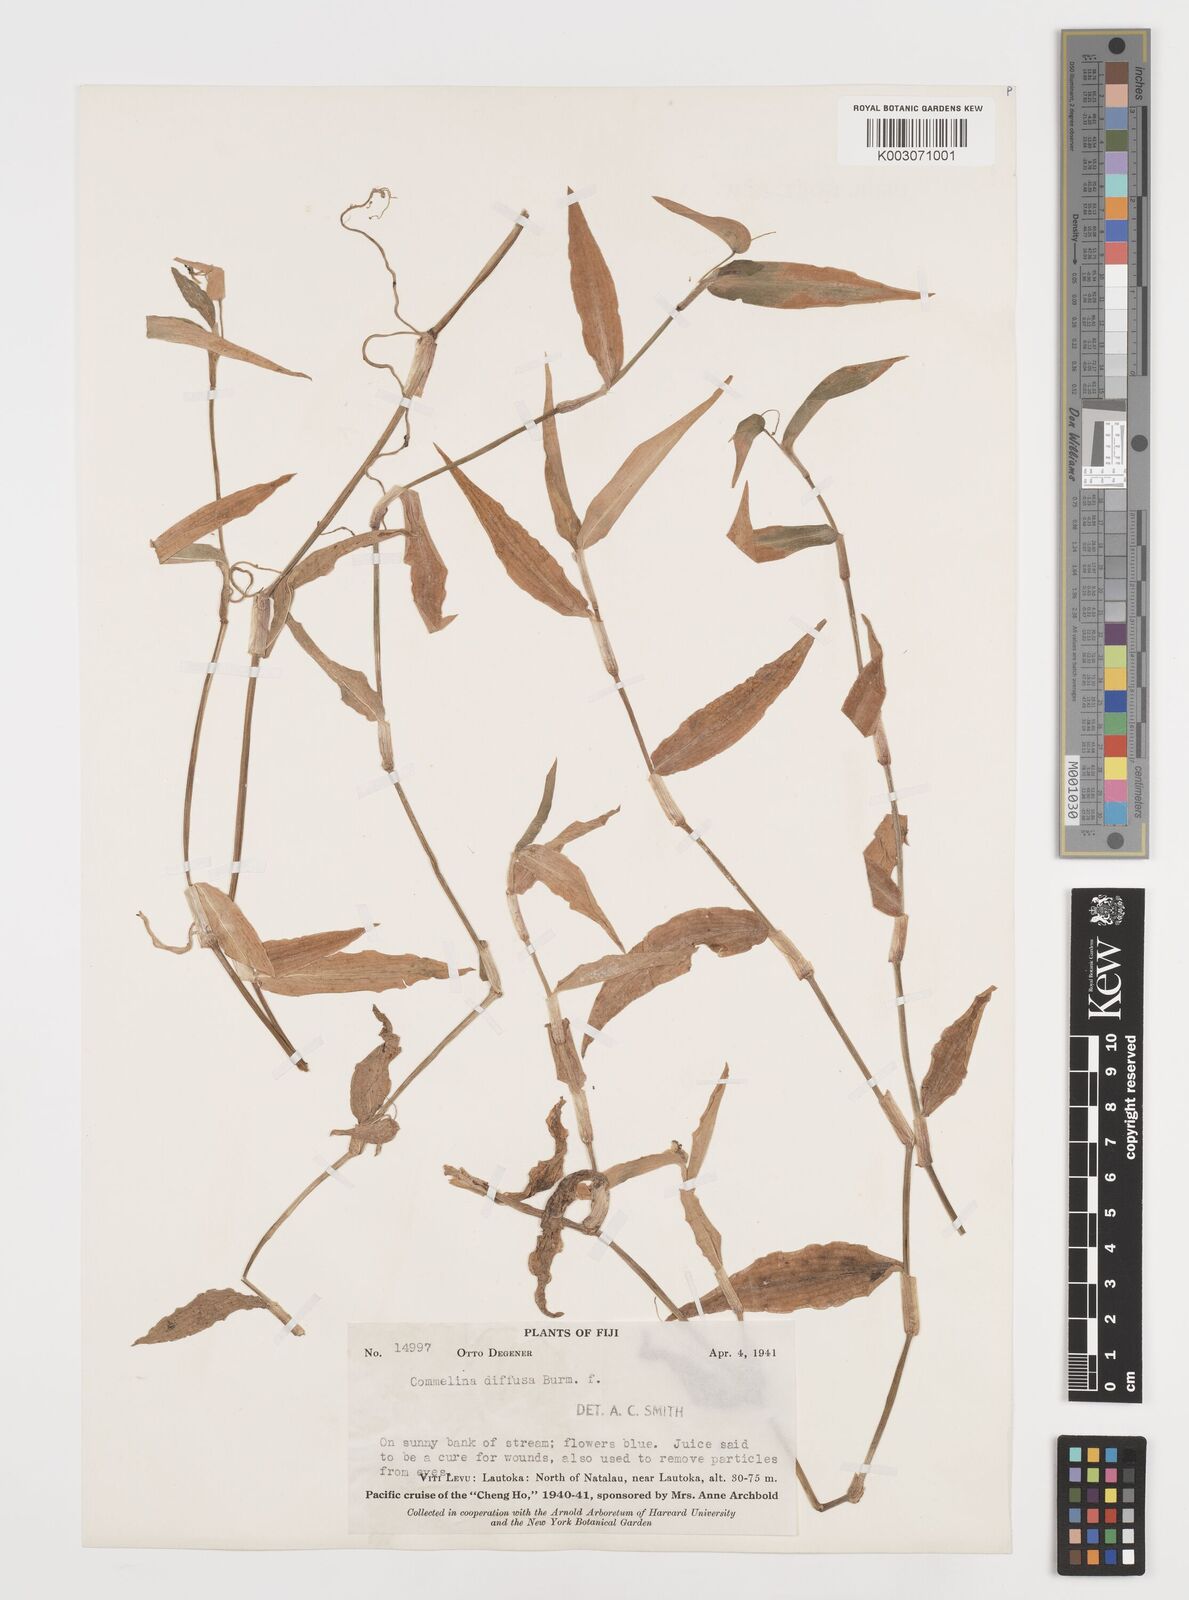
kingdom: Plantae
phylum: Tracheophyta
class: Liliopsida
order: Commelinales
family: Commelinaceae
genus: Commelina
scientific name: Commelina diffusa
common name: Climbing dayflower
